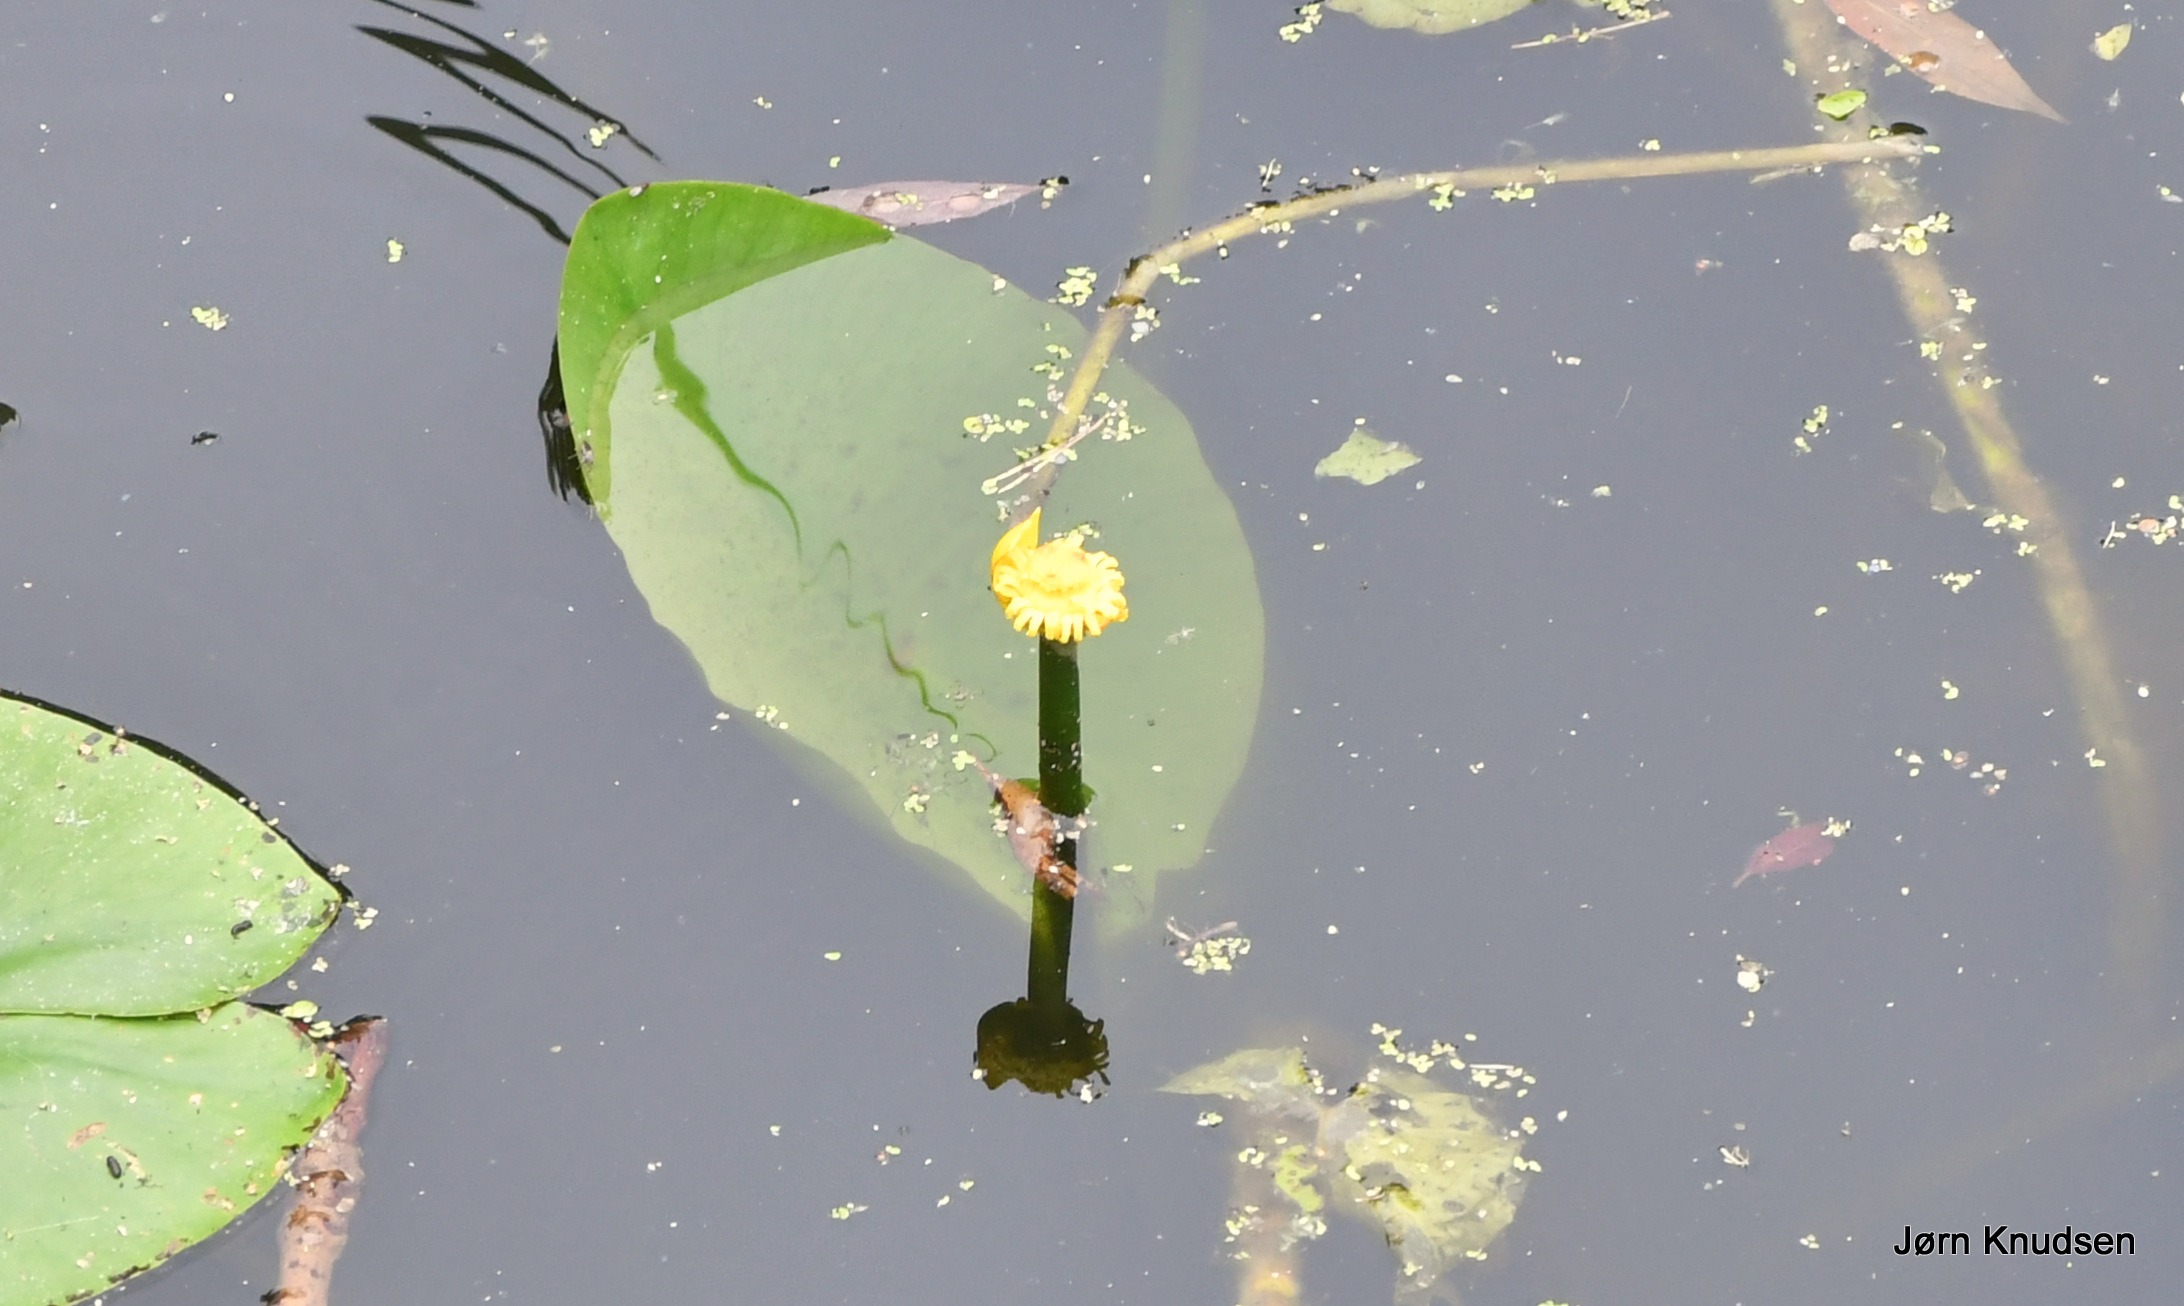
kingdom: Plantae
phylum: Tracheophyta
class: Magnoliopsida
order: Nymphaeales
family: Nymphaeaceae
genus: Nuphar
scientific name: Nuphar lutea
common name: Gul åkande
